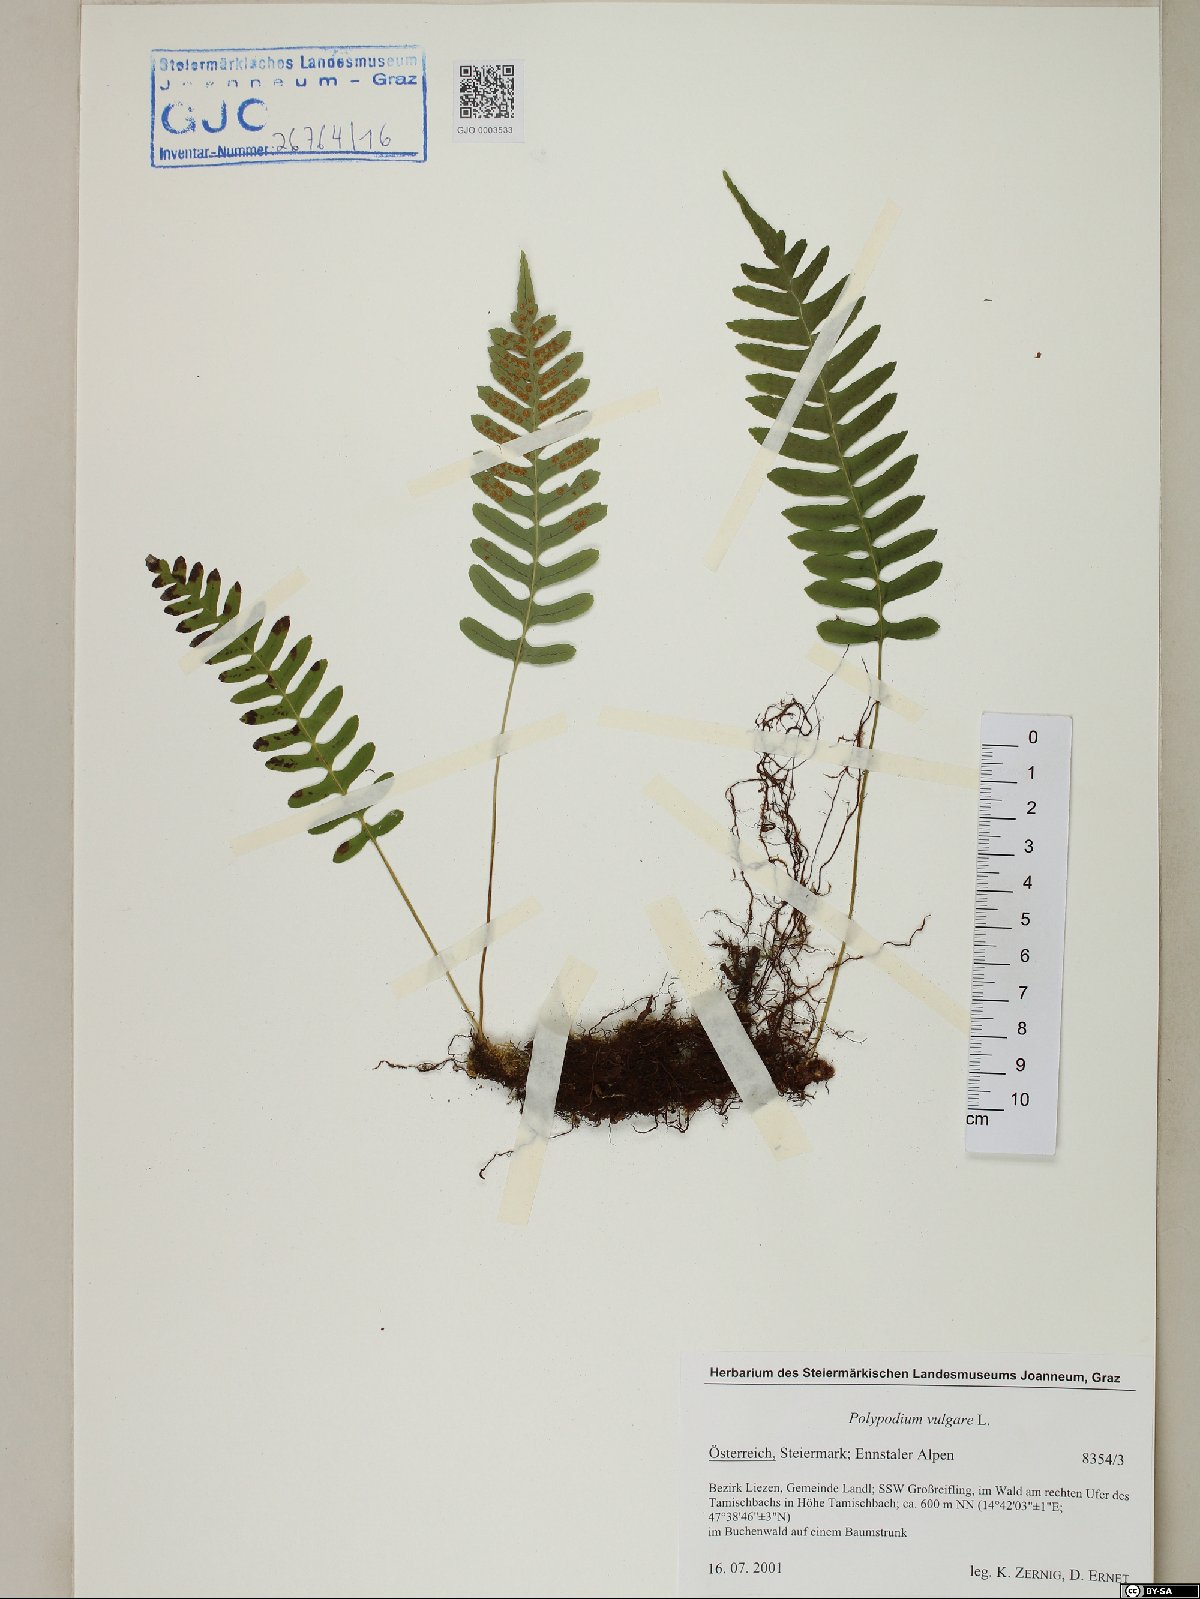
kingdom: Plantae
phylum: Tracheophyta
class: Polypodiopsida
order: Polypodiales
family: Polypodiaceae
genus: Polypodium
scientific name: Polypodium vulgare
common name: Common polypody
